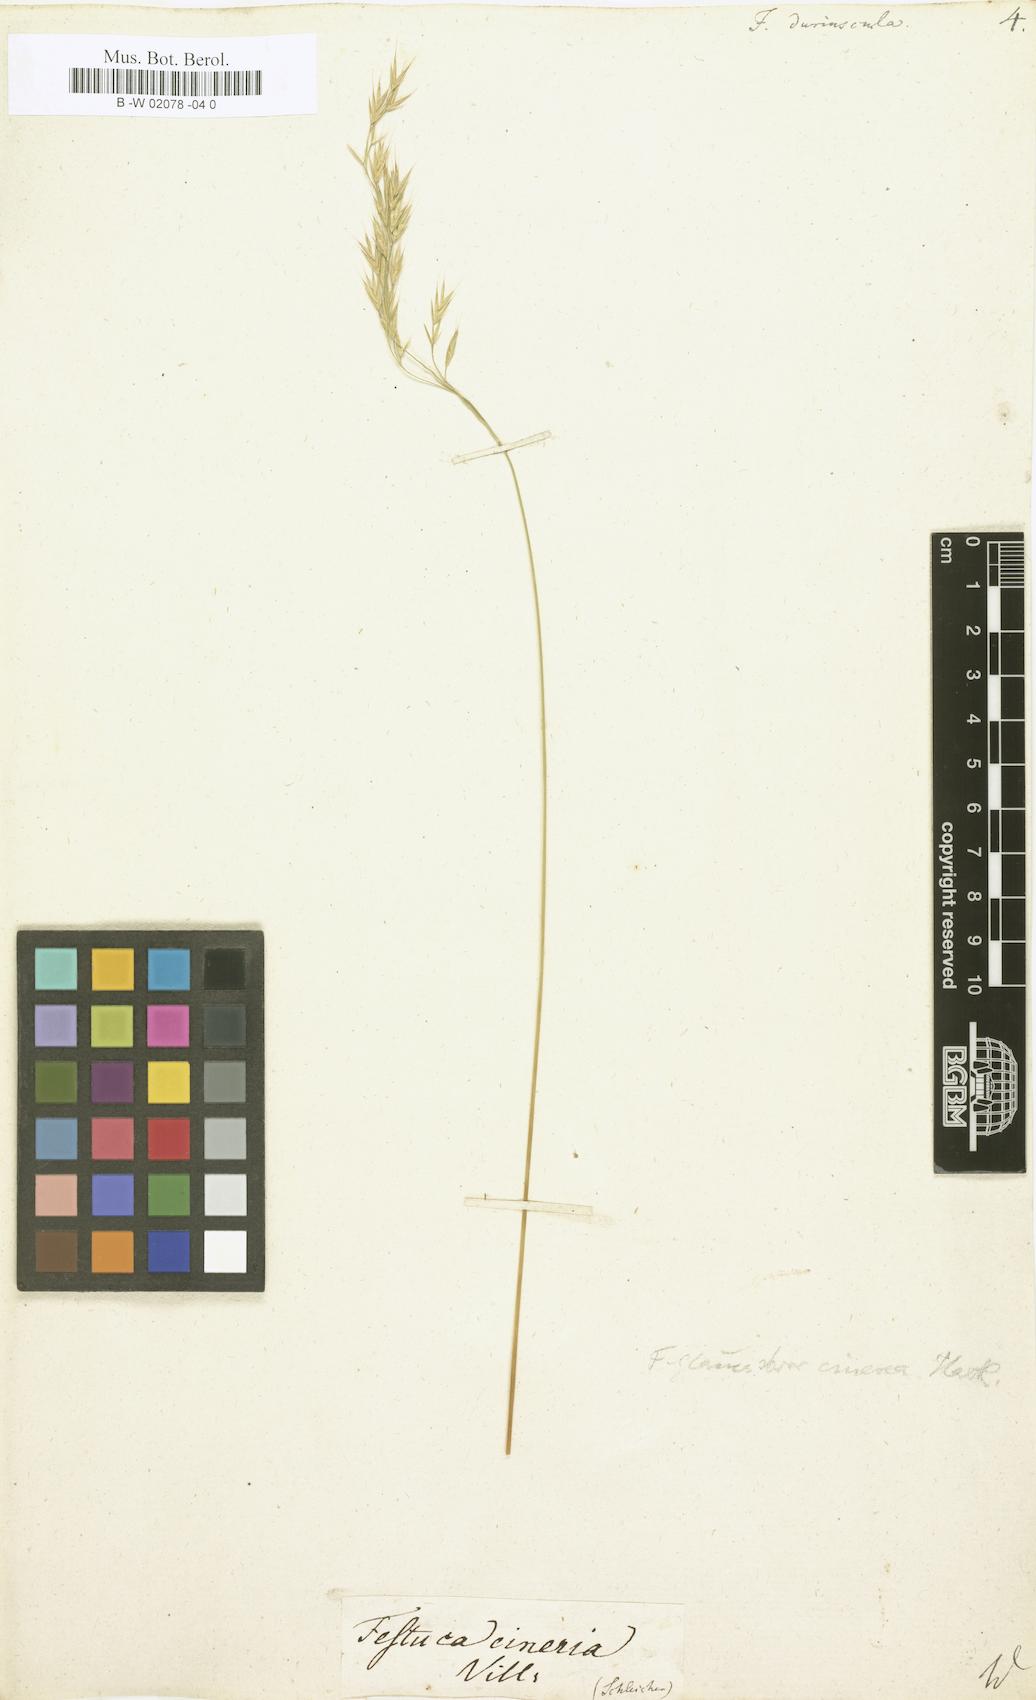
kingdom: Plantae
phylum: Tracheophyta
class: Liliopsida
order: Poales
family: Poaceae
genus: Festuca
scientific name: Festuca
